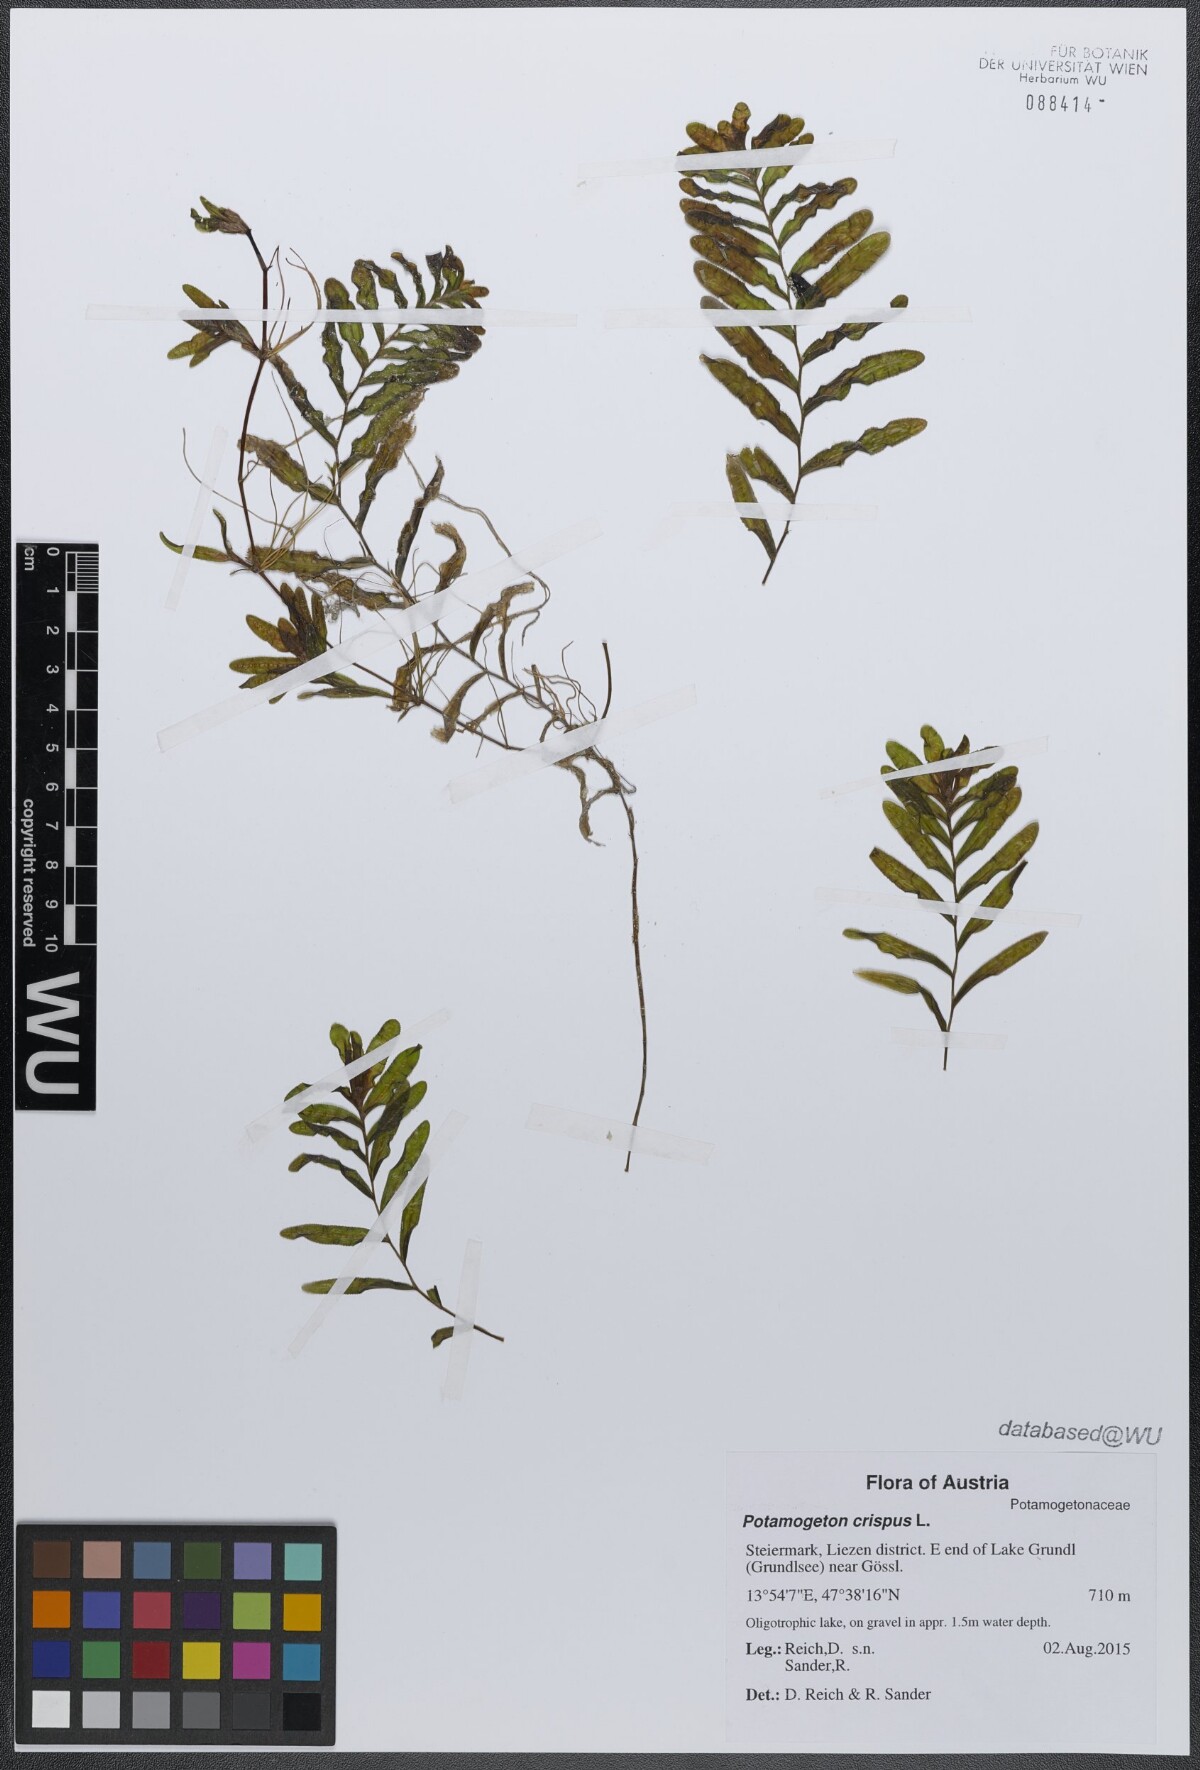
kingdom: Plantae
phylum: Tracheophyta
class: Liliopsida
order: Alismatales
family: Potamogetonaceae
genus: Potamogeton
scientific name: Potamogeton crispus
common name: Curled pondweed
